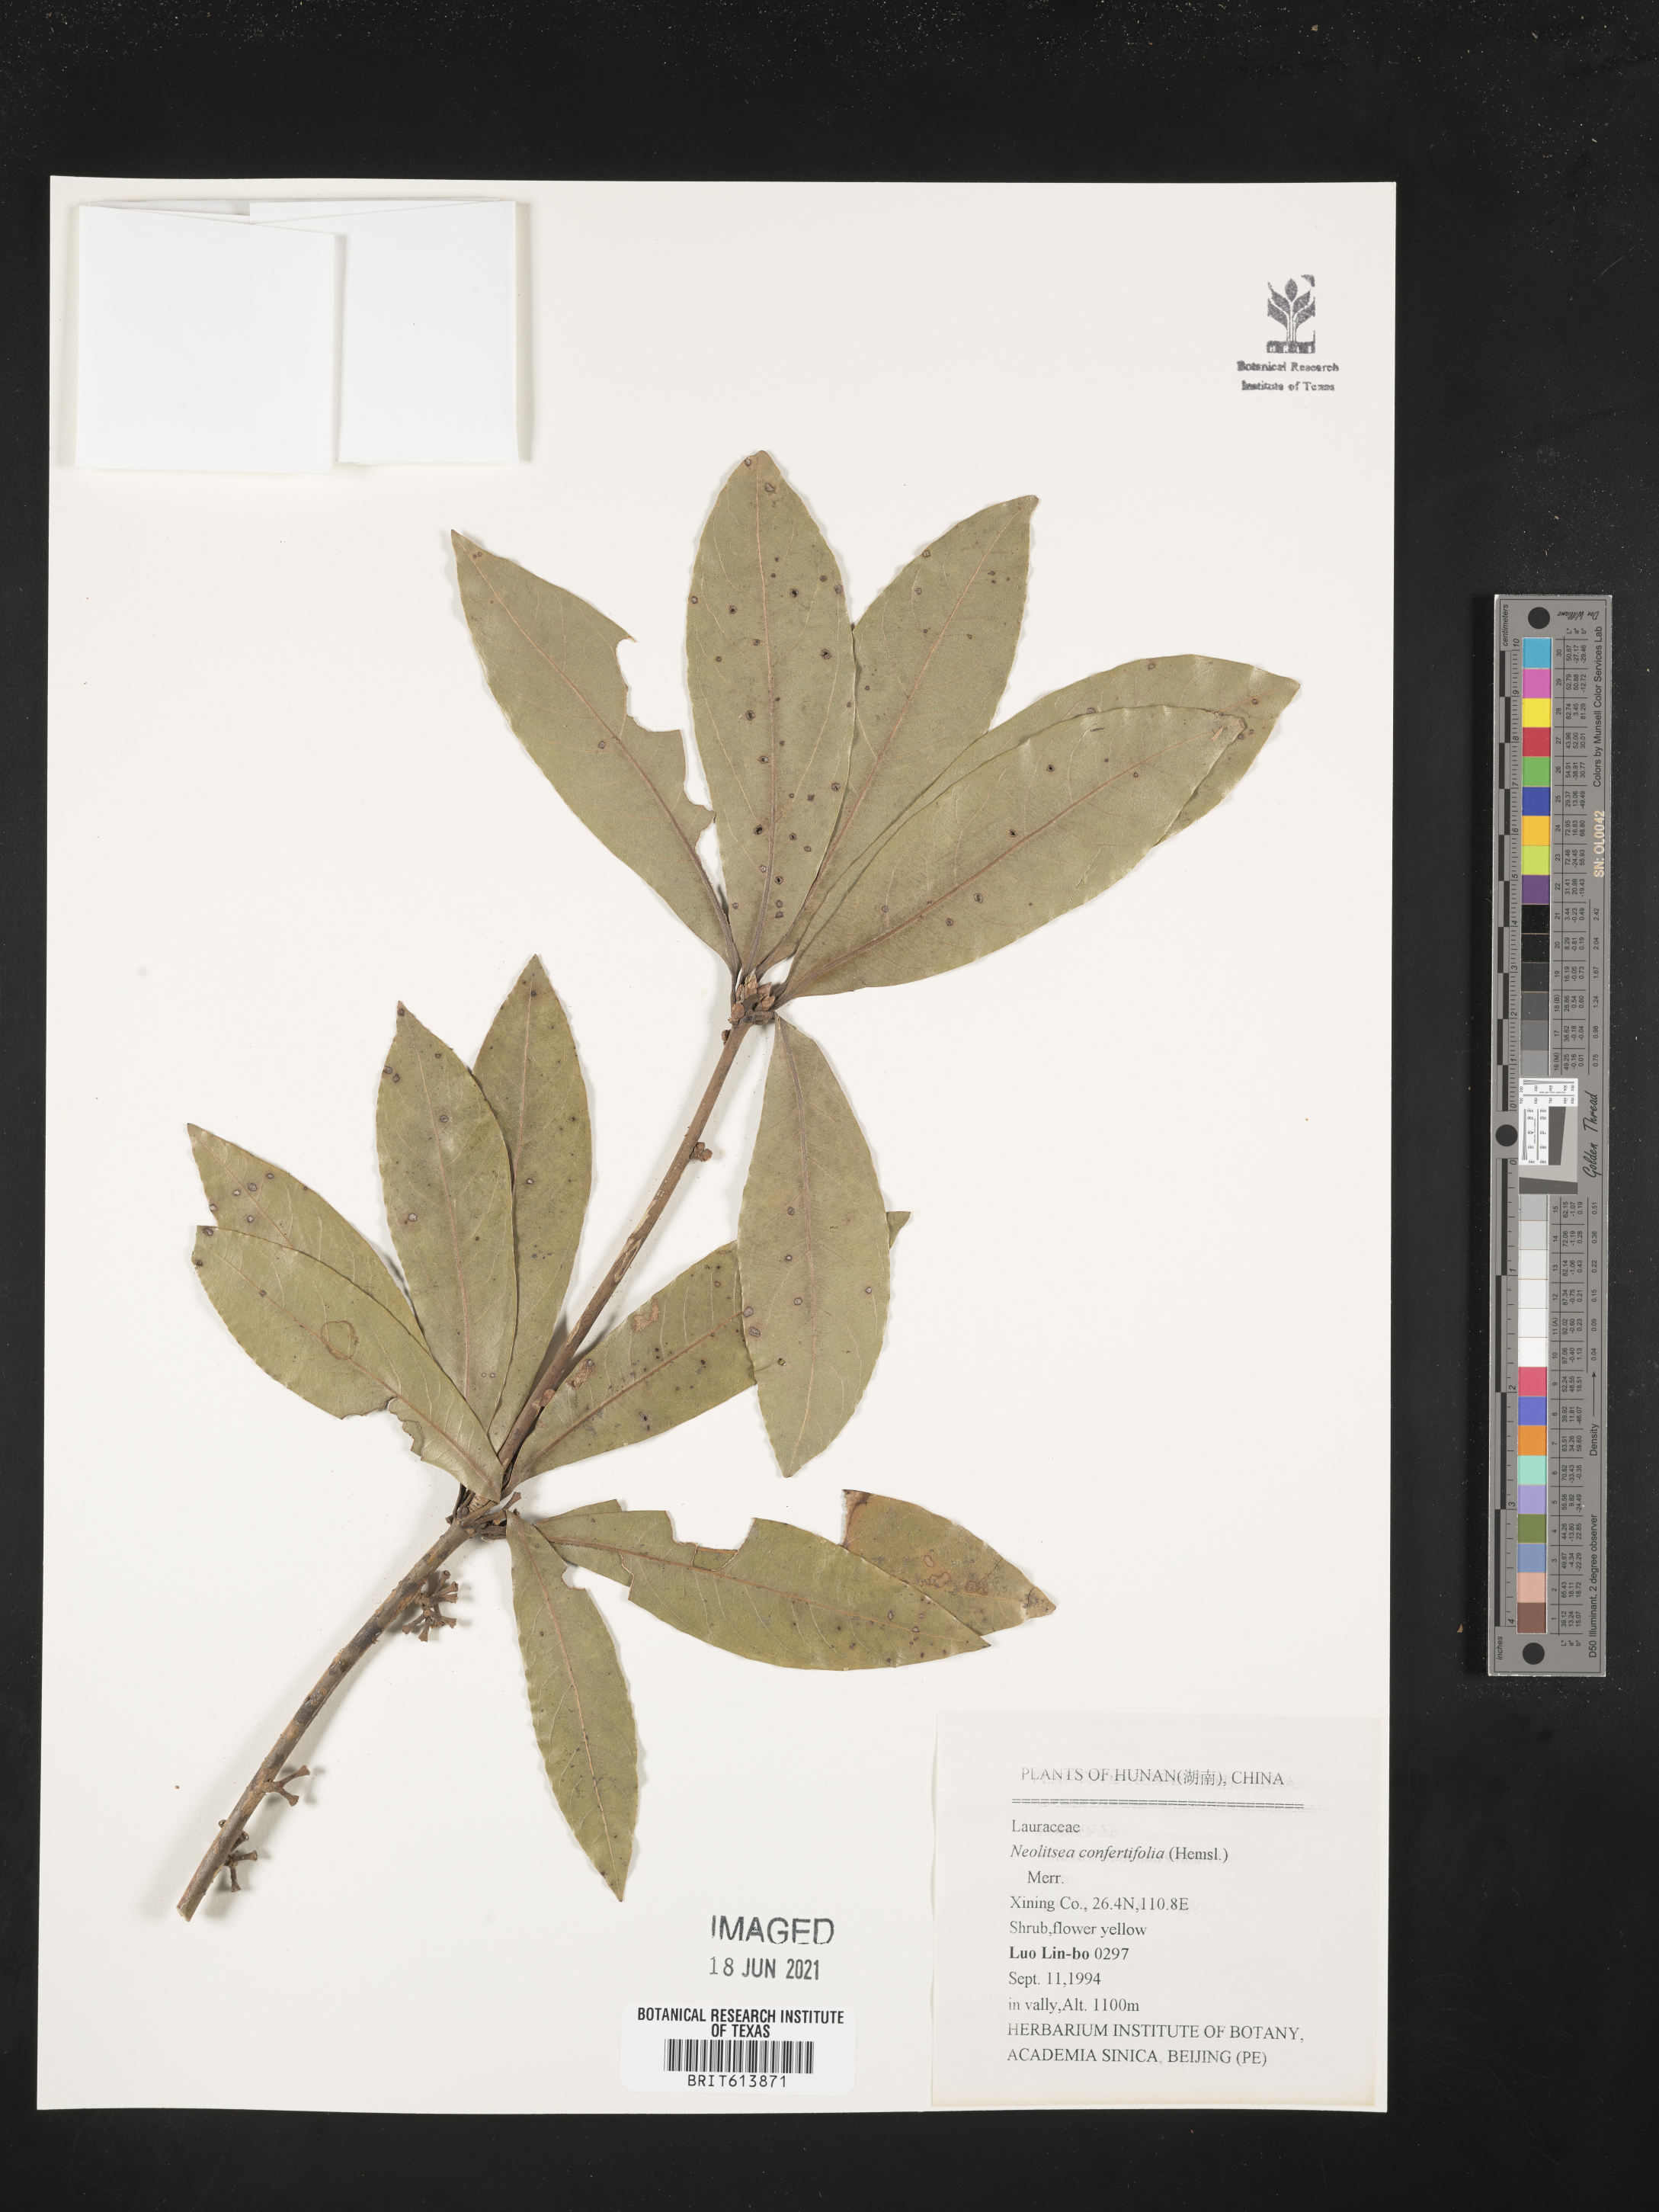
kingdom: Plantae
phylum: Tracheophyta
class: Magnoliopsida
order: Laurales
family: Lauraceae
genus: Neolitsea
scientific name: Neolitsea confertifolia
